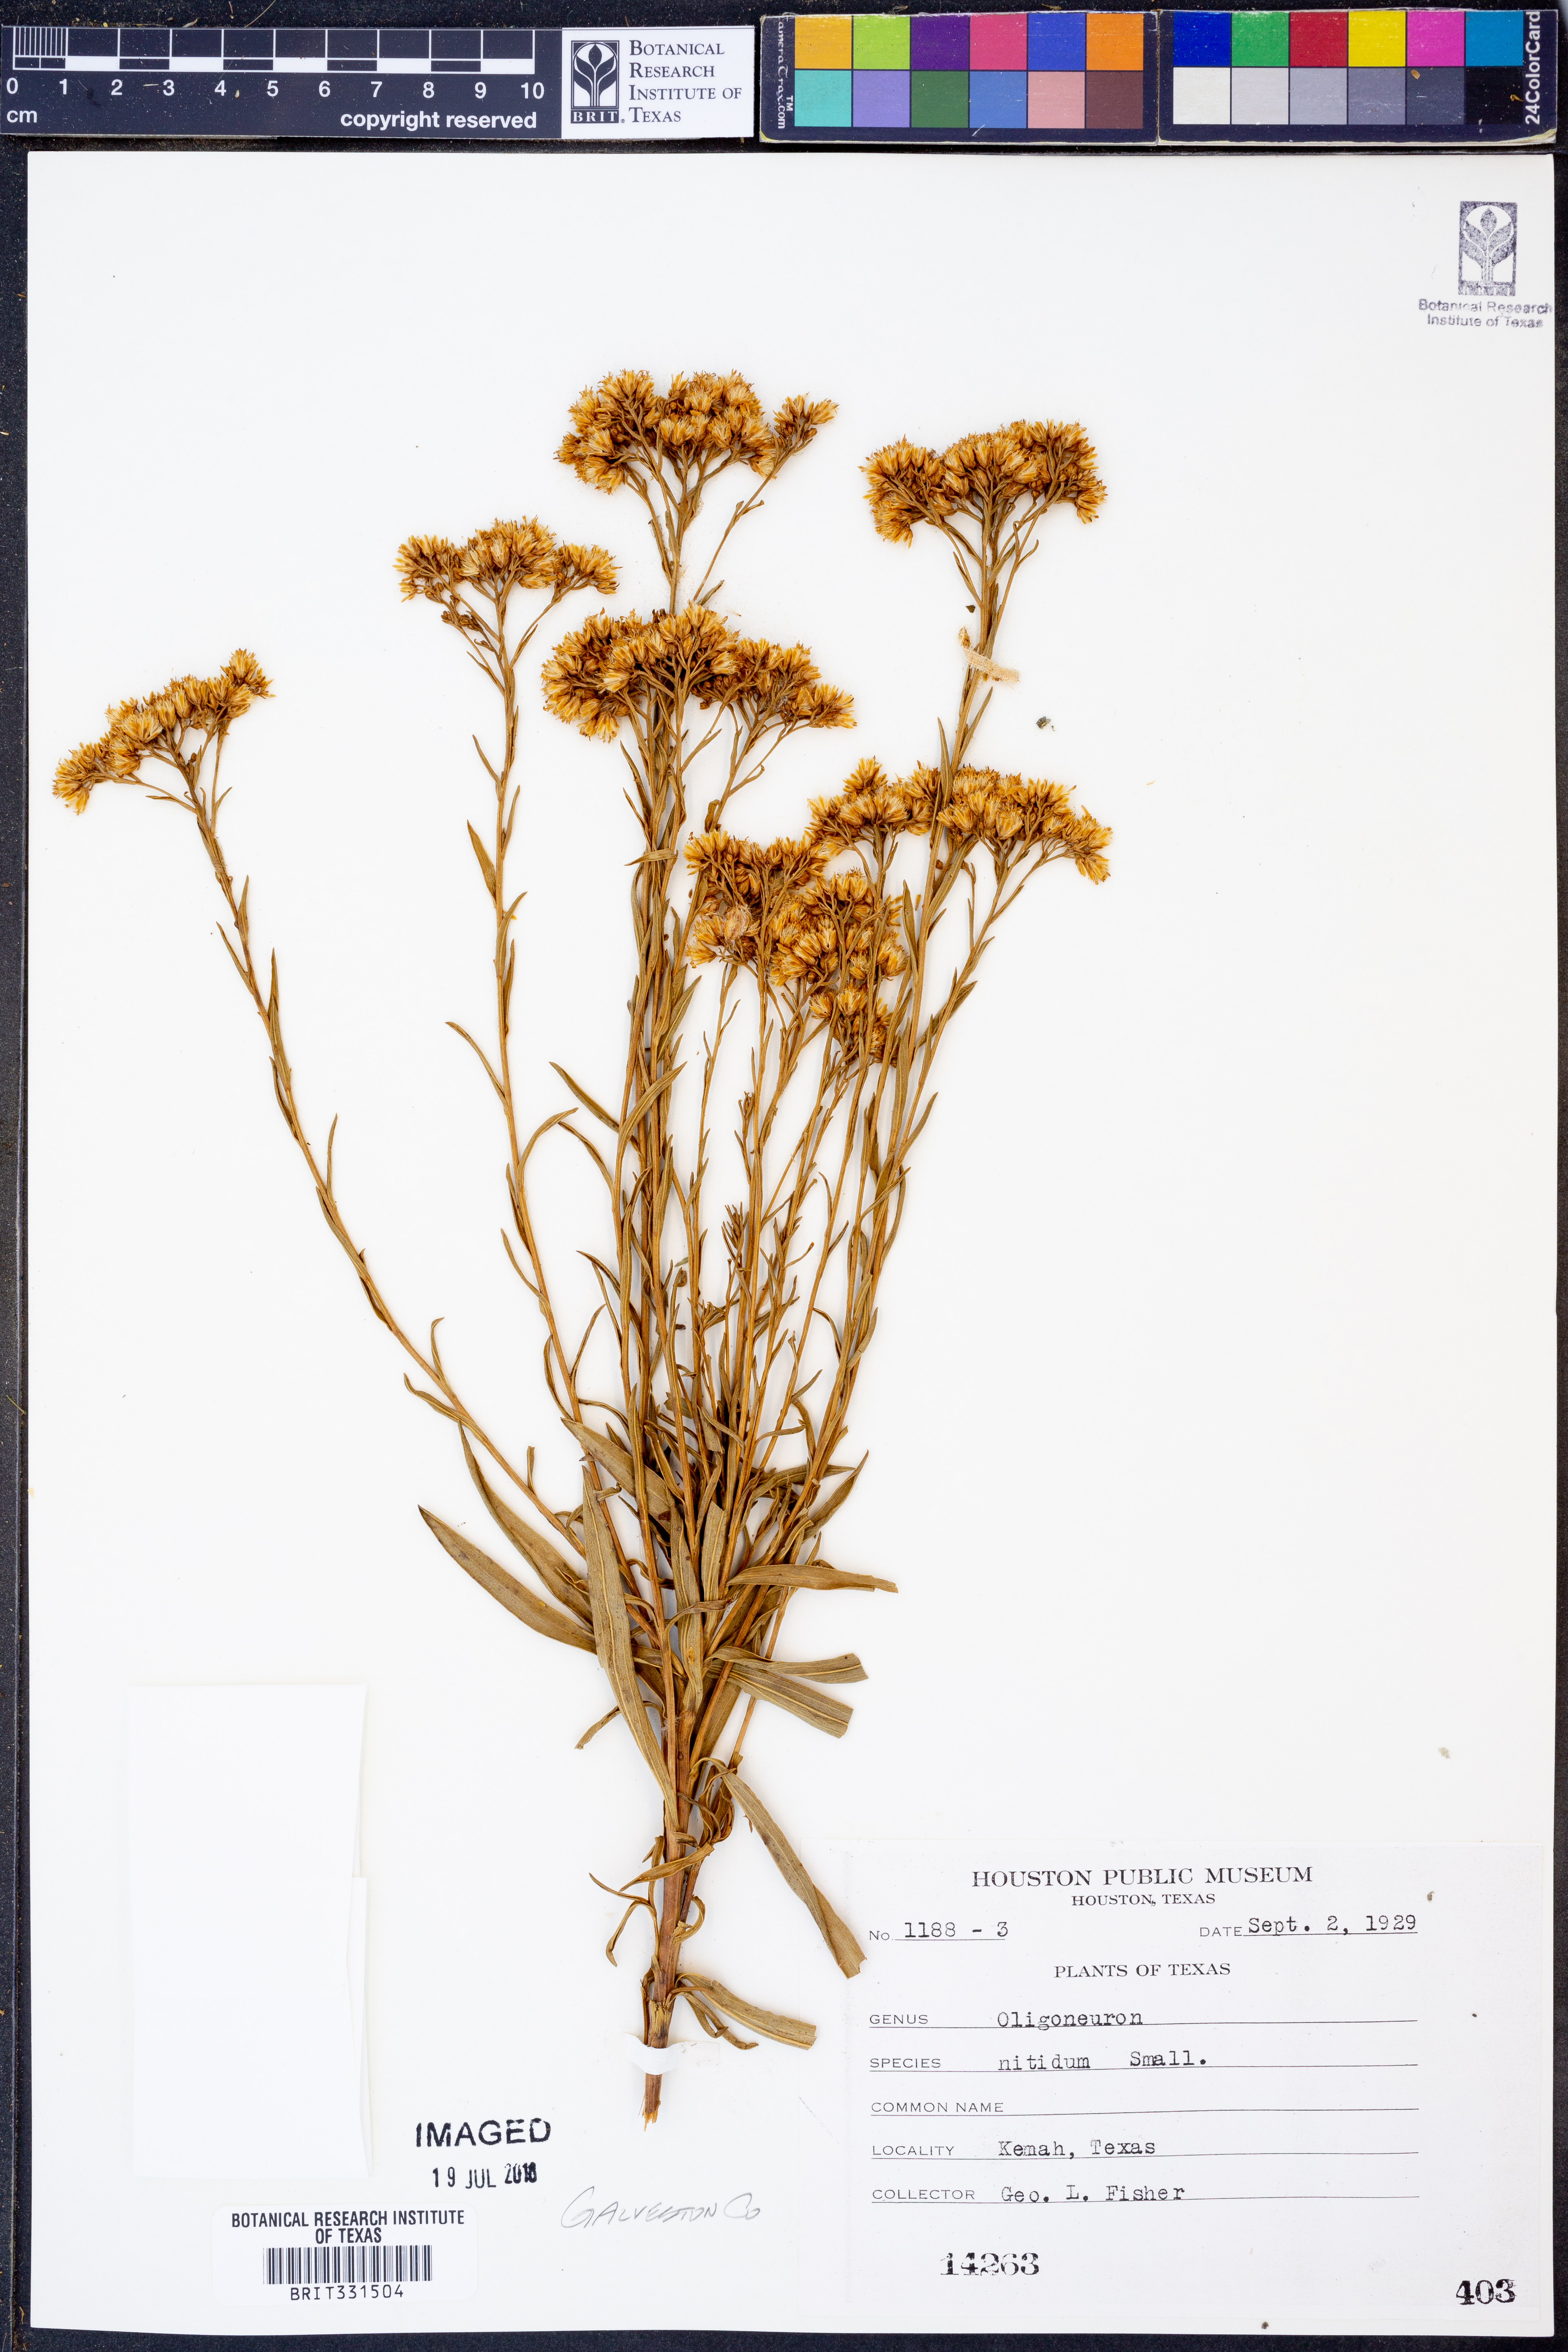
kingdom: Plantae
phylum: Tracheophyta
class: Magnoliopsida
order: Asterales
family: Asteraceae
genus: Solidago
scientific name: Solidago nitida
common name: Shiny goldenrod
